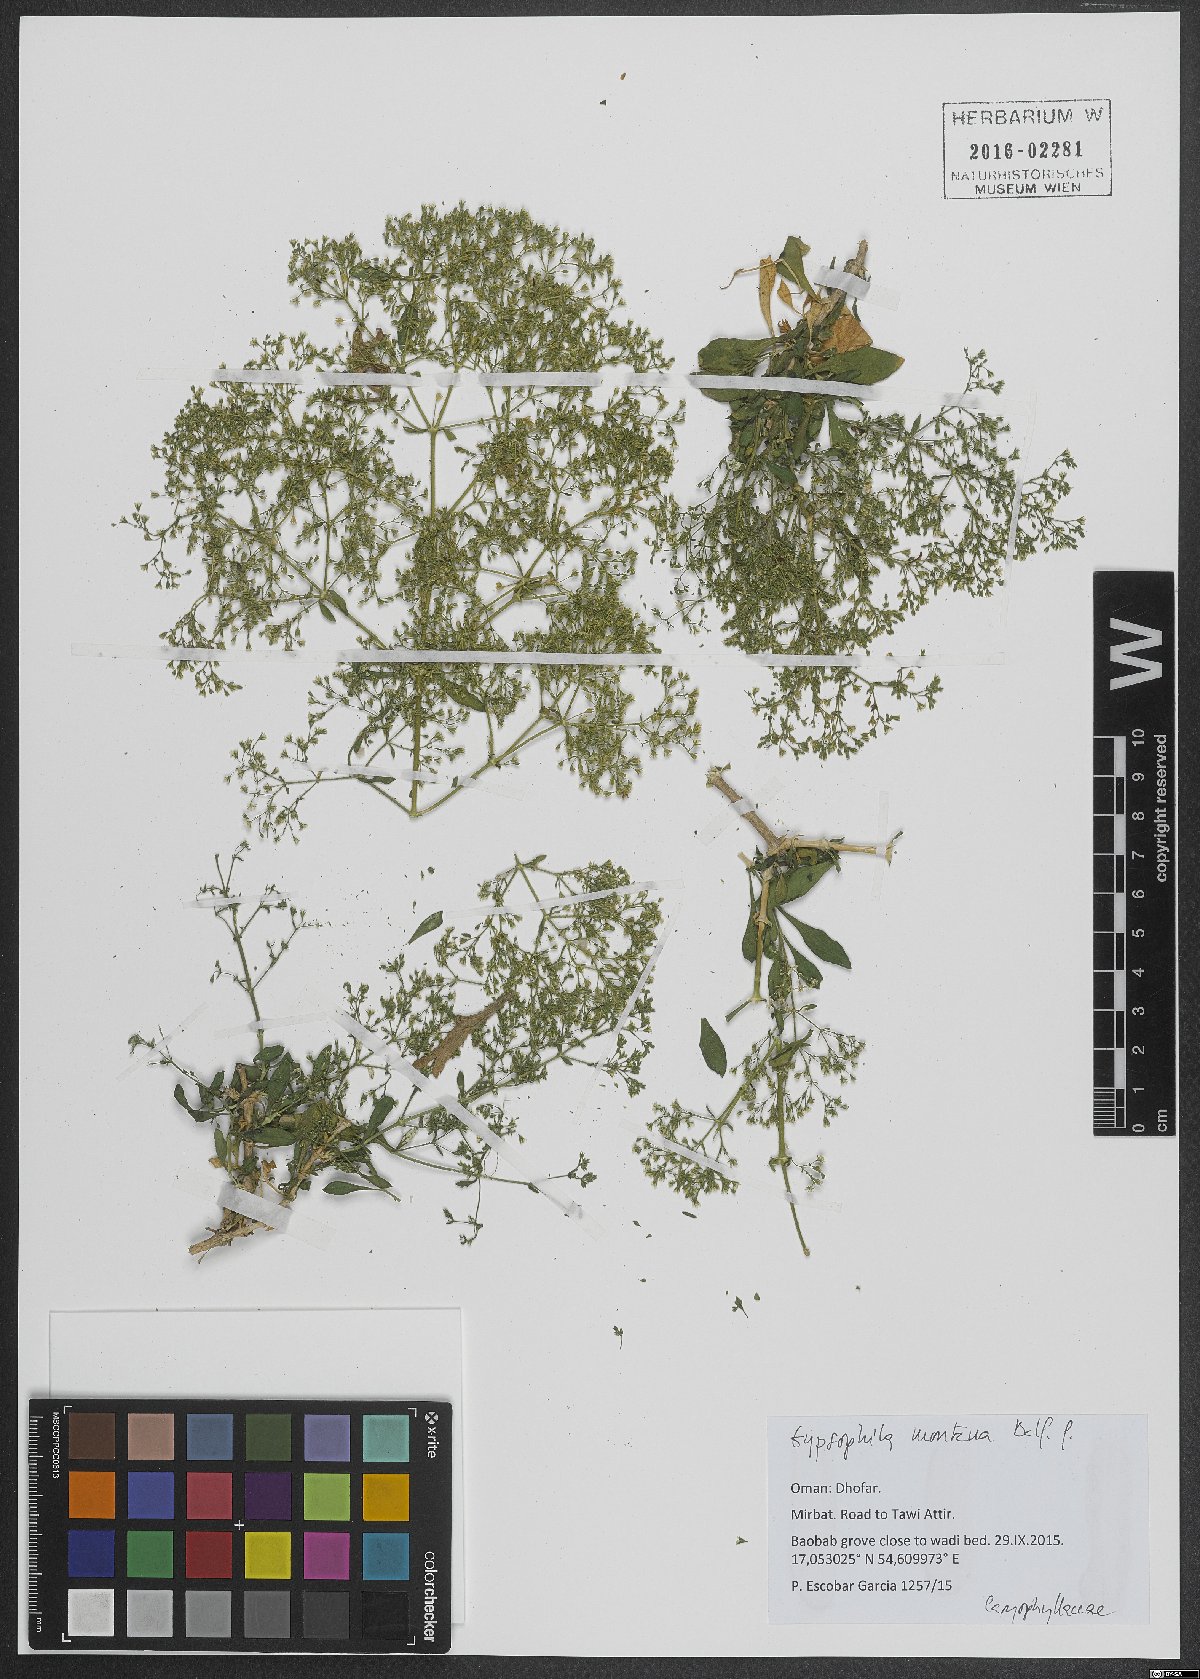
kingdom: Plantae
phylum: Tracheophyta
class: Magnoliopsida
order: Caryophyllales
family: Caryophyllaceae
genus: Petroana
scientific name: Petroana montana
